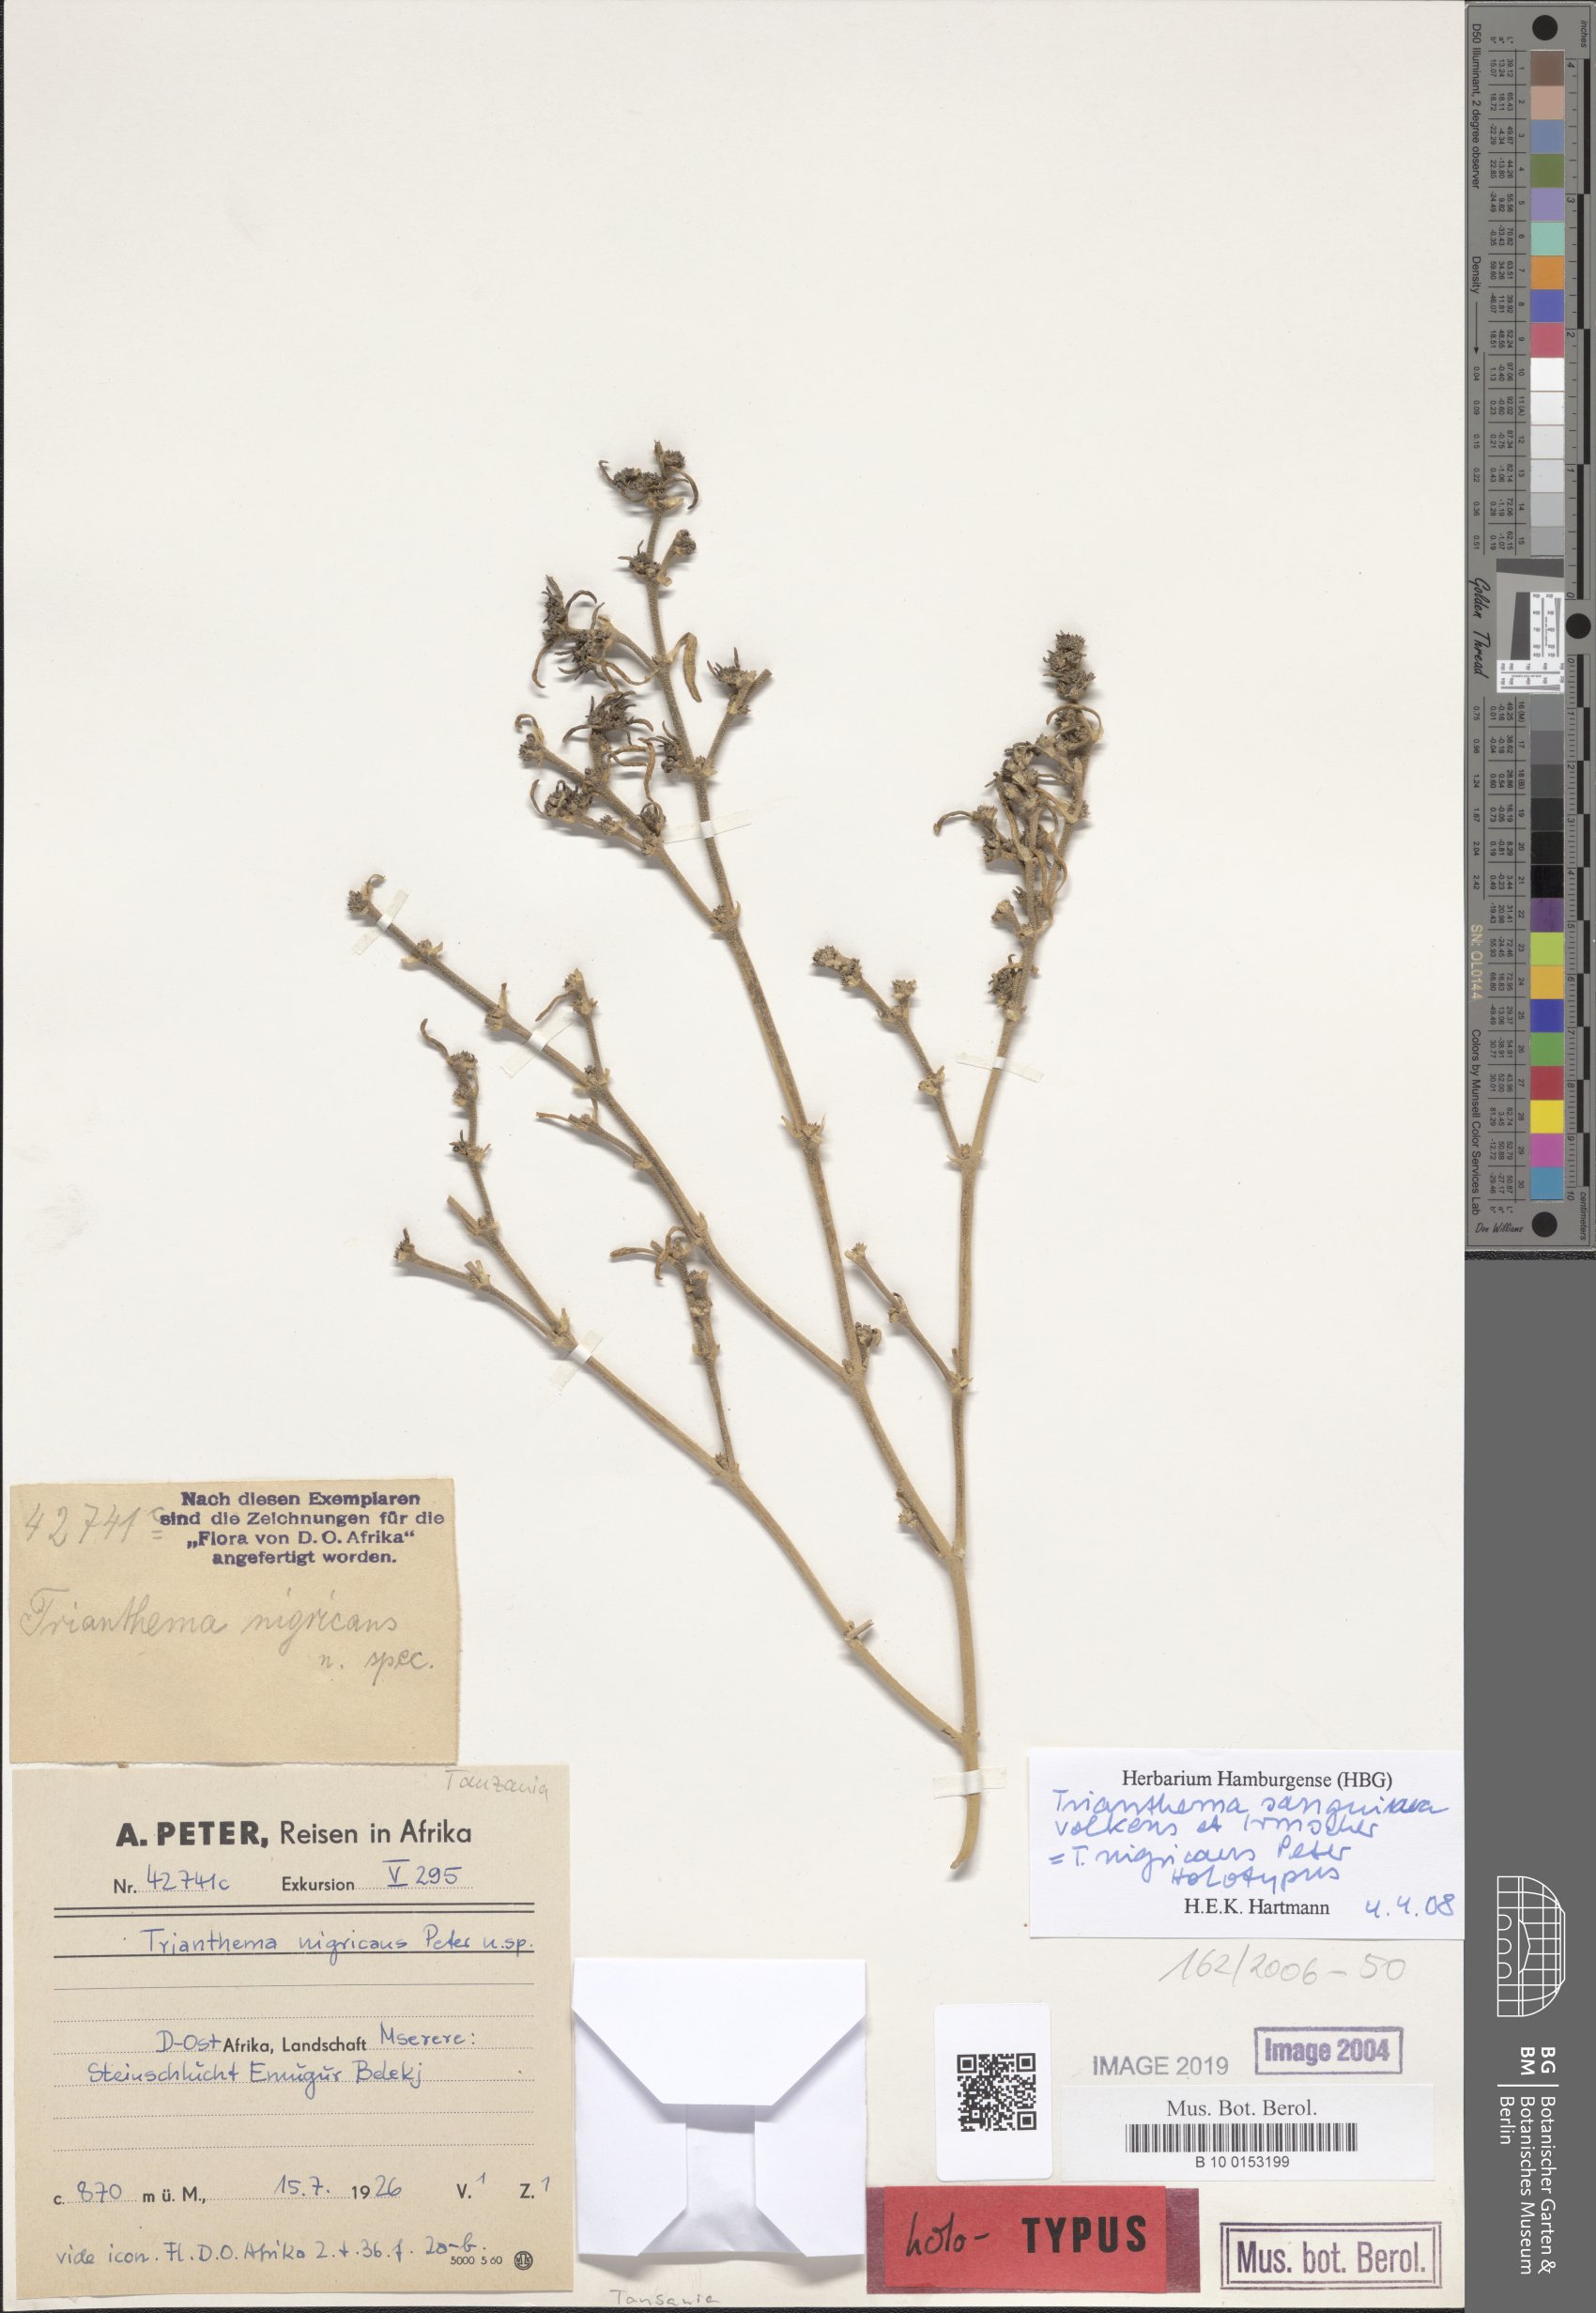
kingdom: Plantae
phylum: Tracheophyta
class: Magnoliopsida
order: Caryophyllales
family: Aizoaceae
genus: Trianthema
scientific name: Trianthema sanguineum
